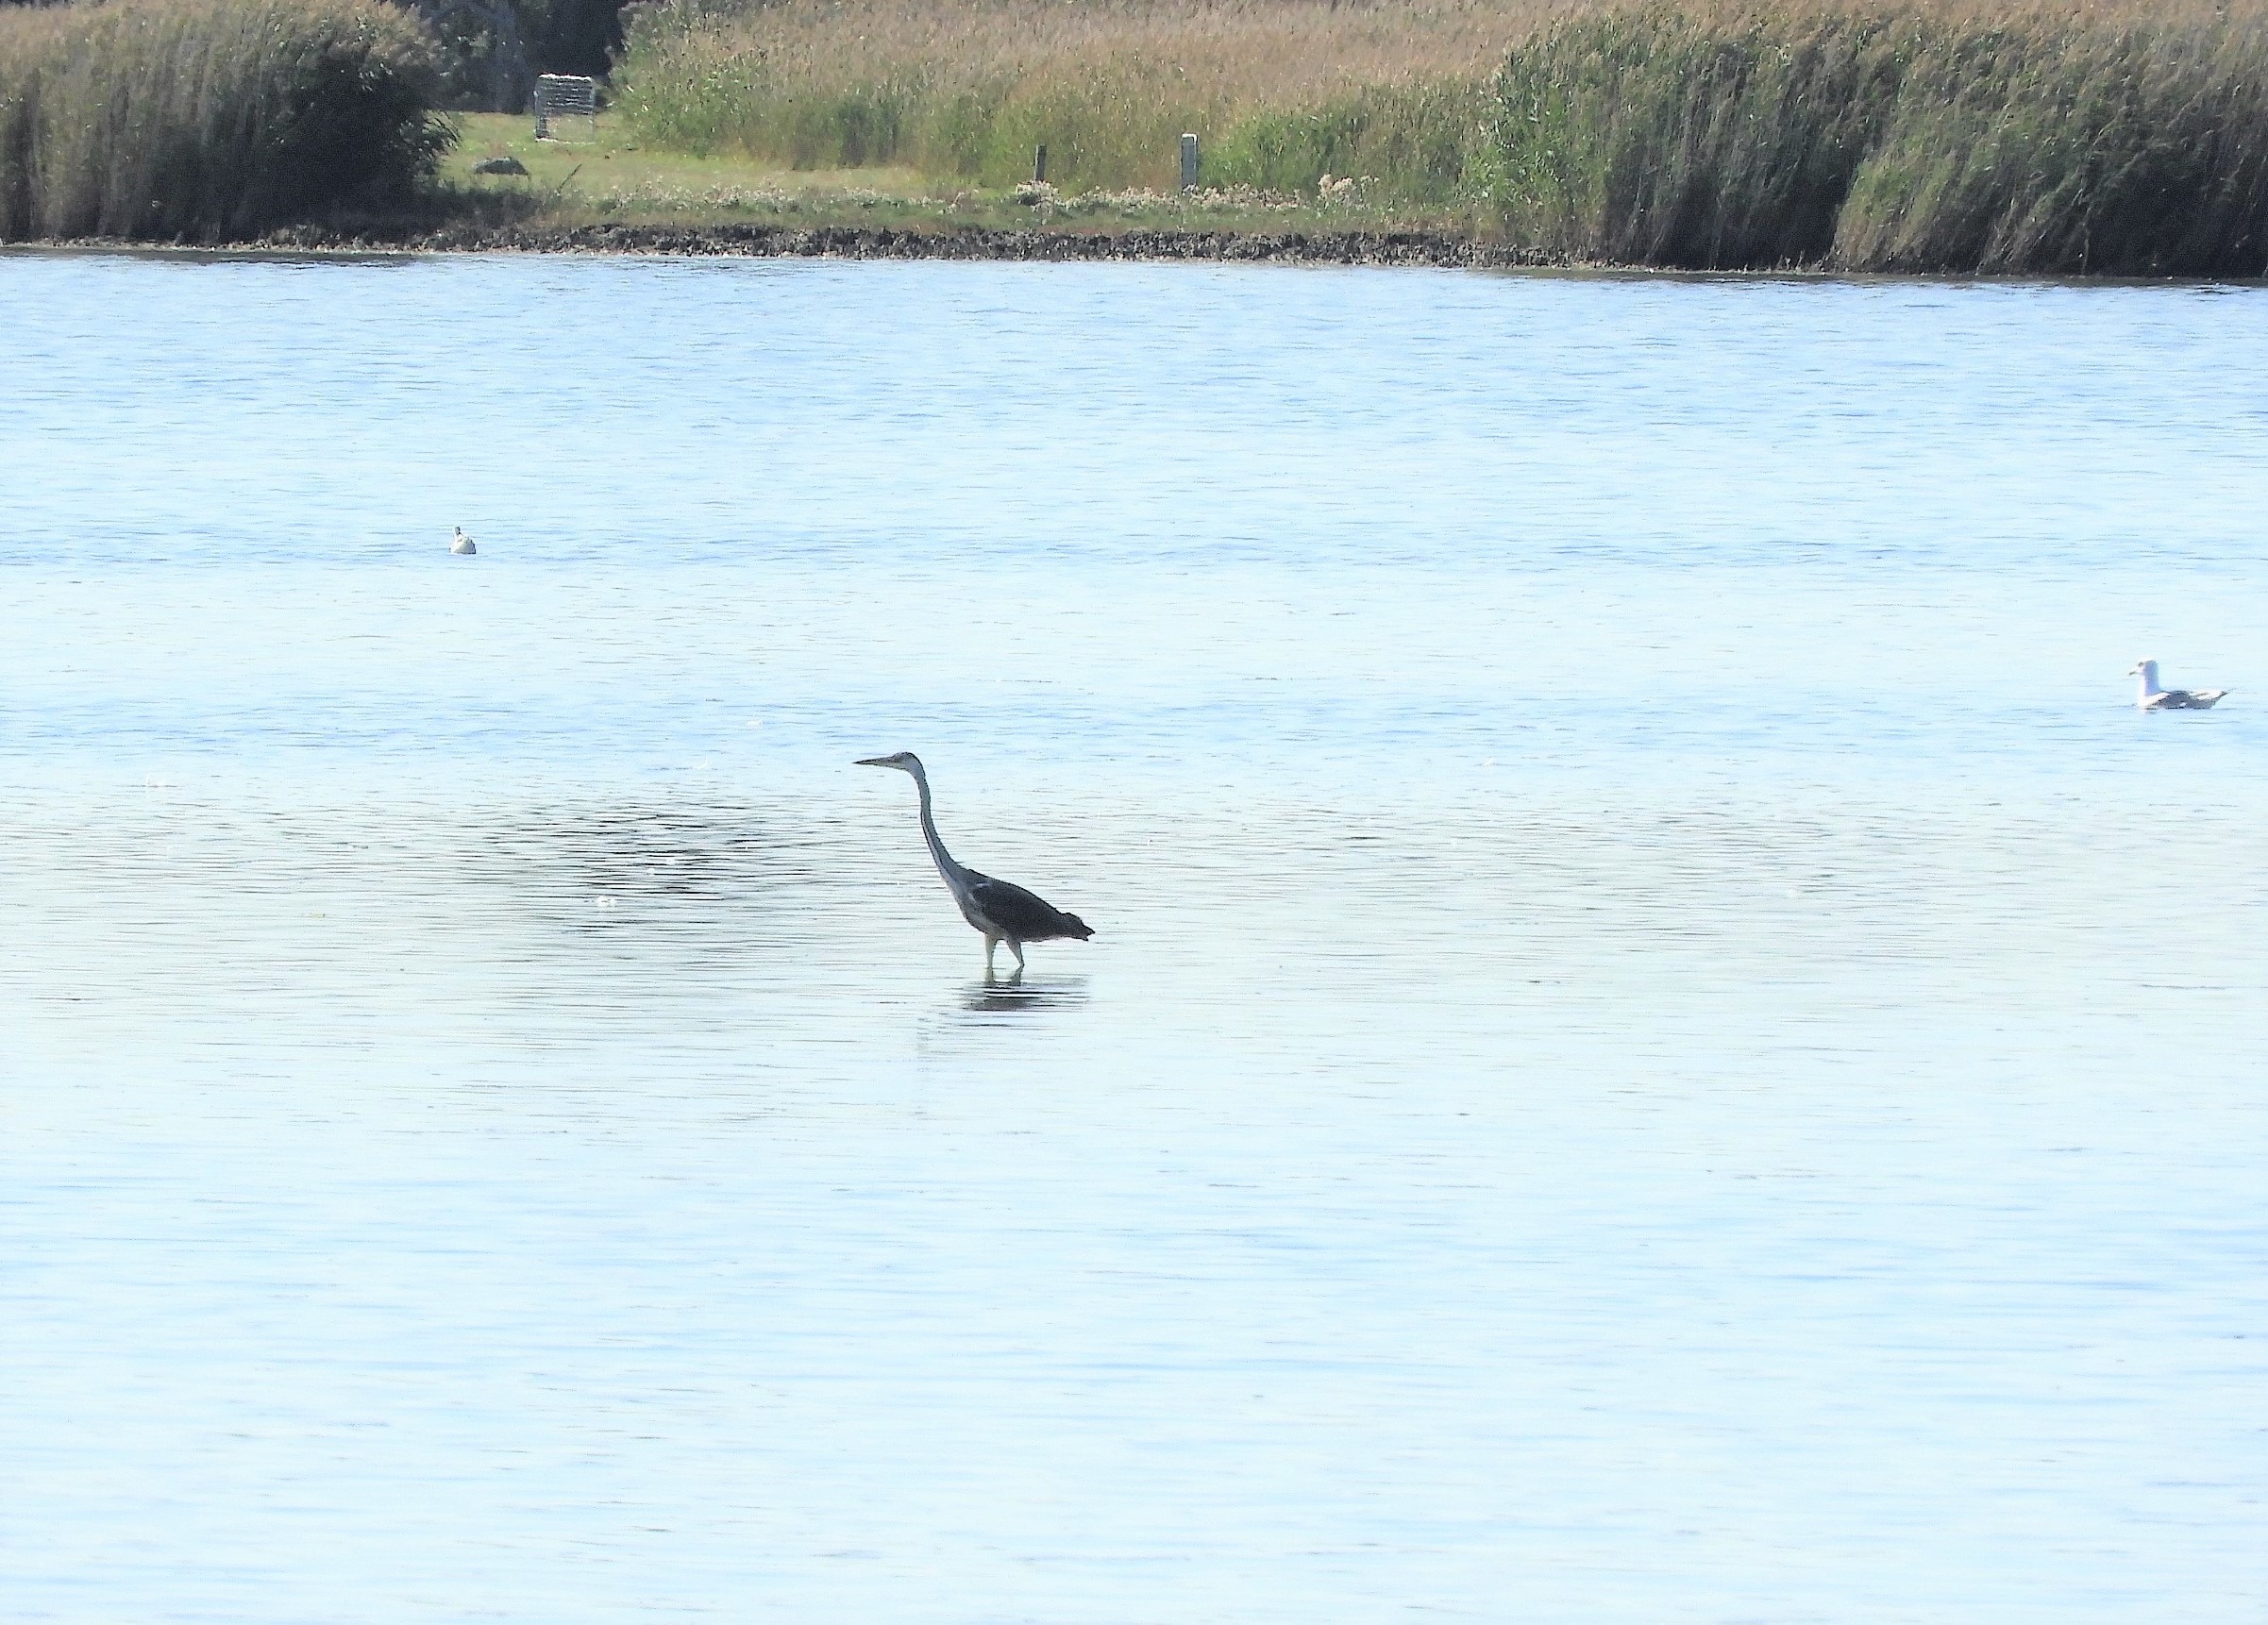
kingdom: Animalia
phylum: Chordata
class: Aves
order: Pelecaniformes
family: Ardeidae
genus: Ardea
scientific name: Ardea cinerea
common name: Fiskehejre
